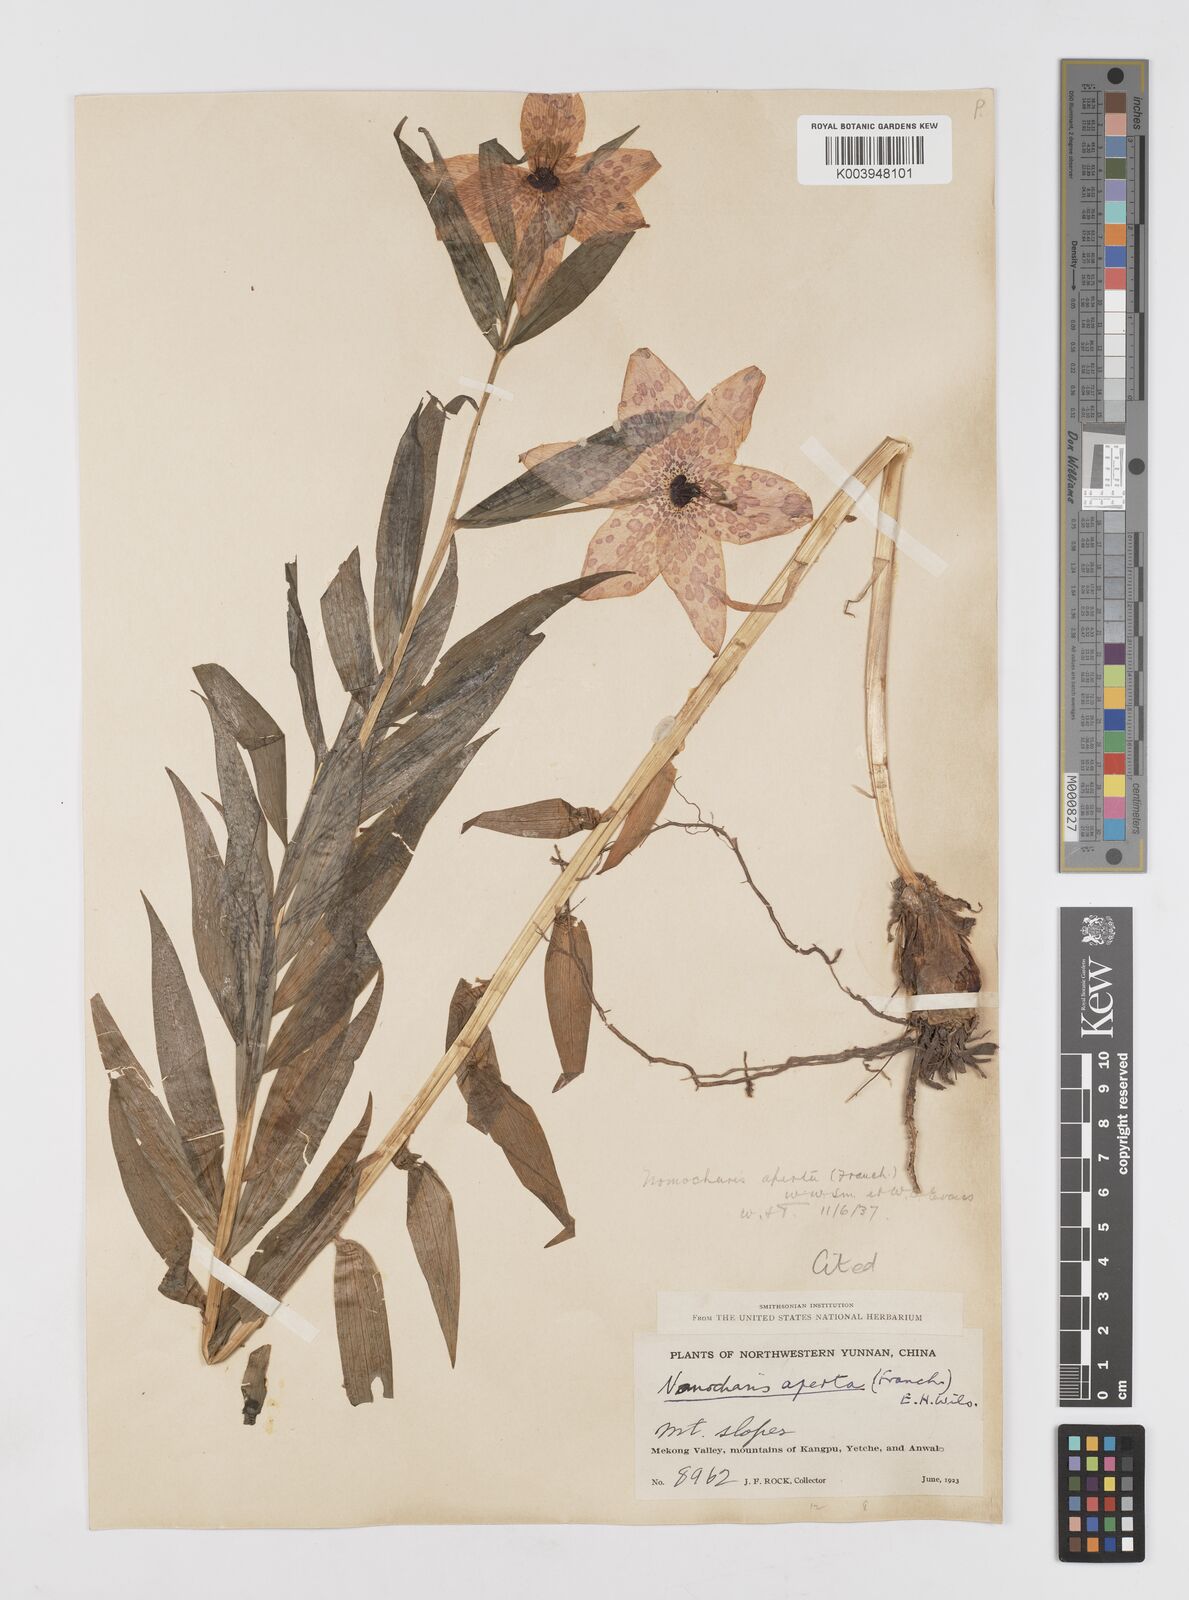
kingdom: Plantae
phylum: Tracheophyta
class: Liliopsida
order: Liliales
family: Liliaceae
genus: Lilium
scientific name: Lilium apertum
